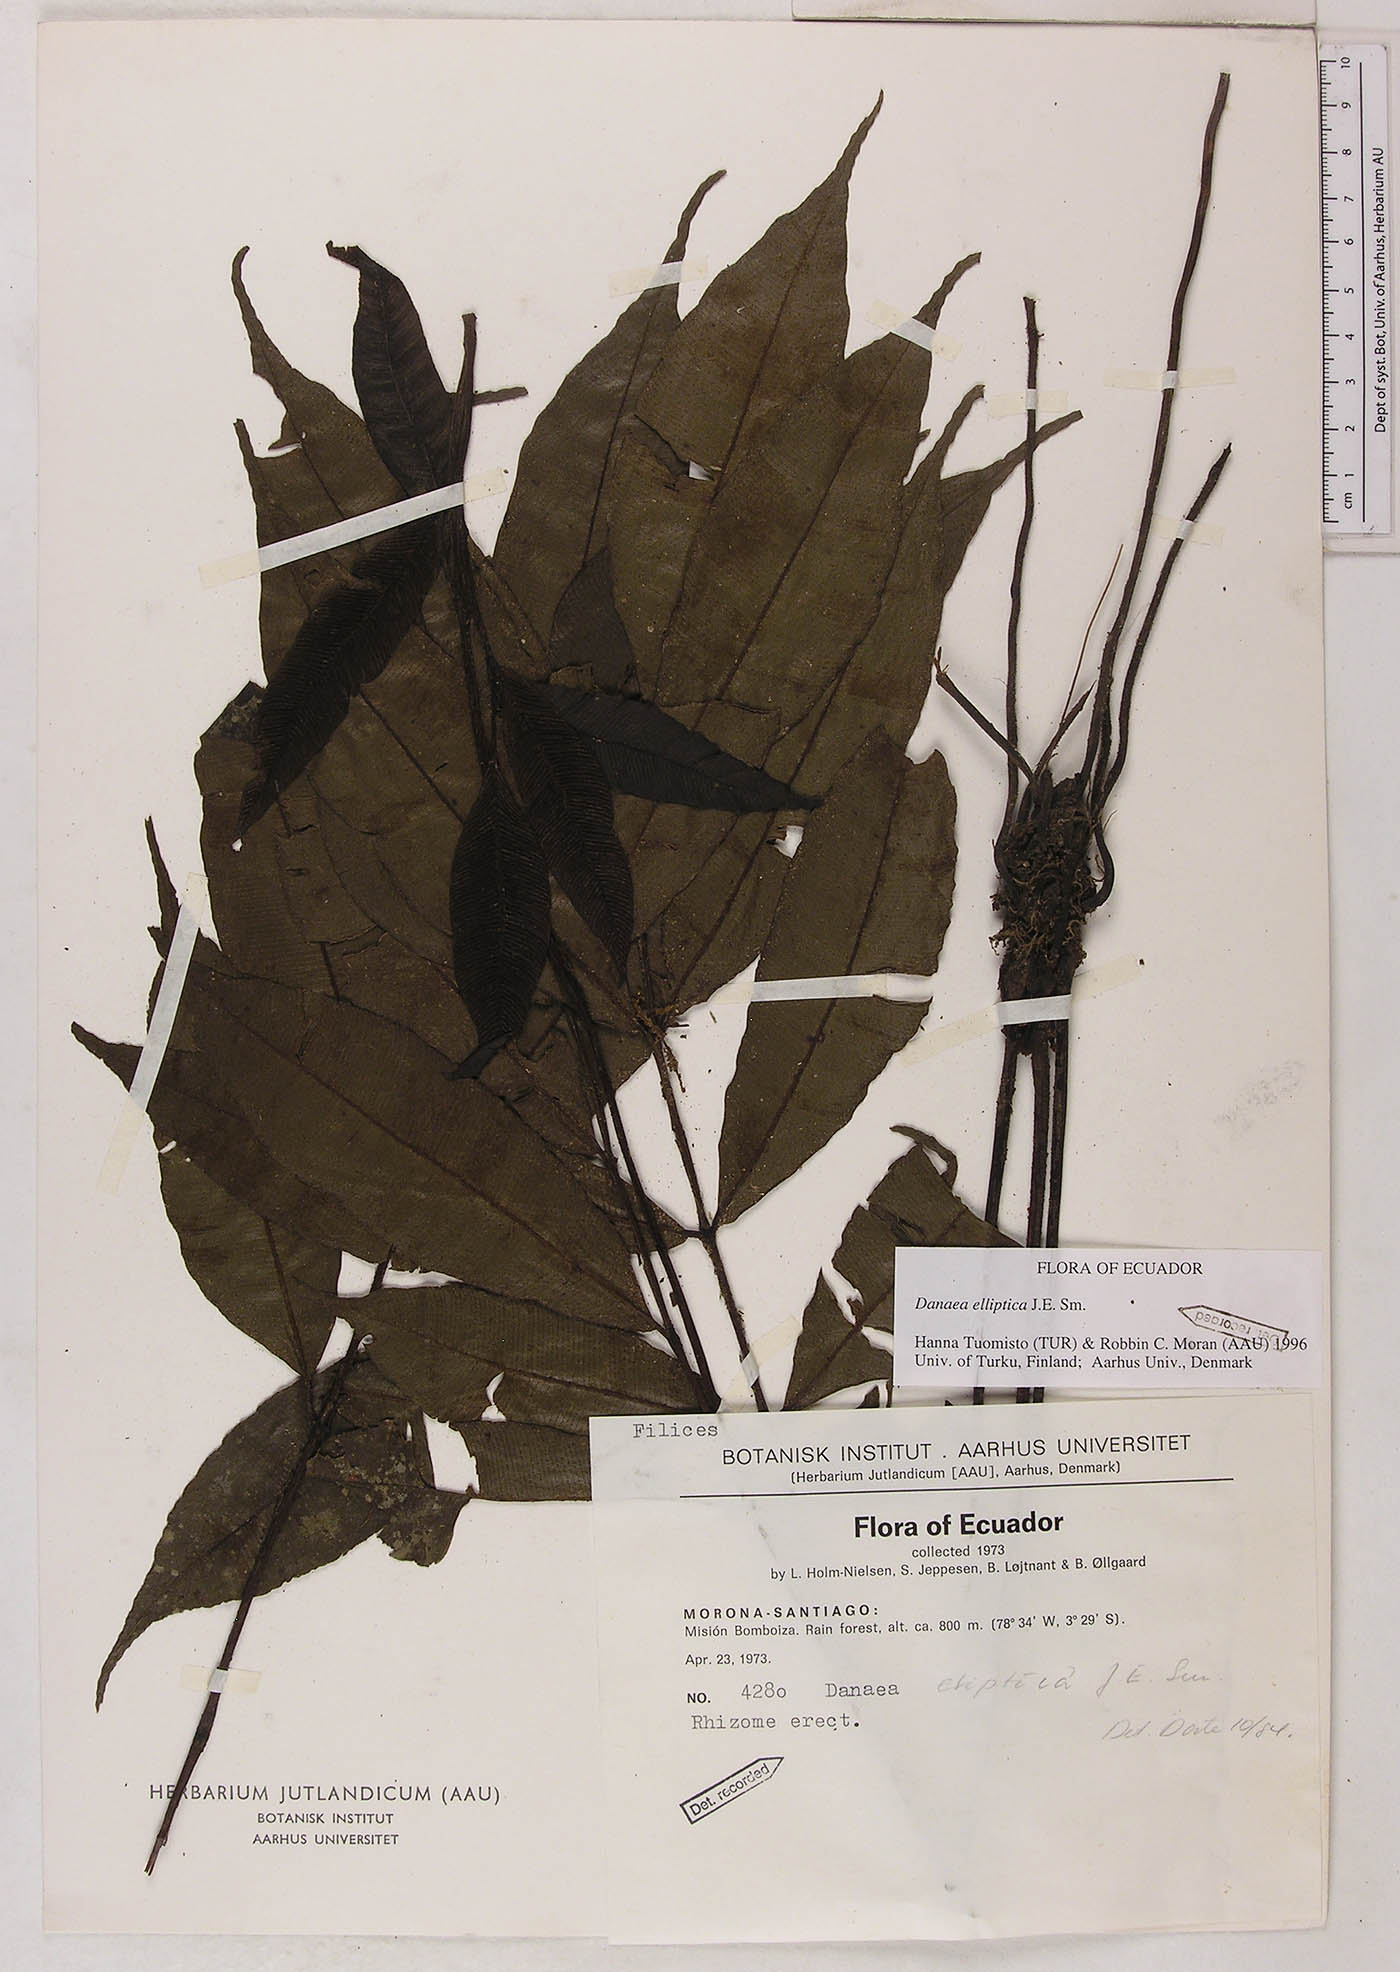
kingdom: Plantae
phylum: Tracheophyta
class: Polypodiopsida
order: Marattiales
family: Marattiaceae
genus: Danaea
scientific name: Danaea nodosa
